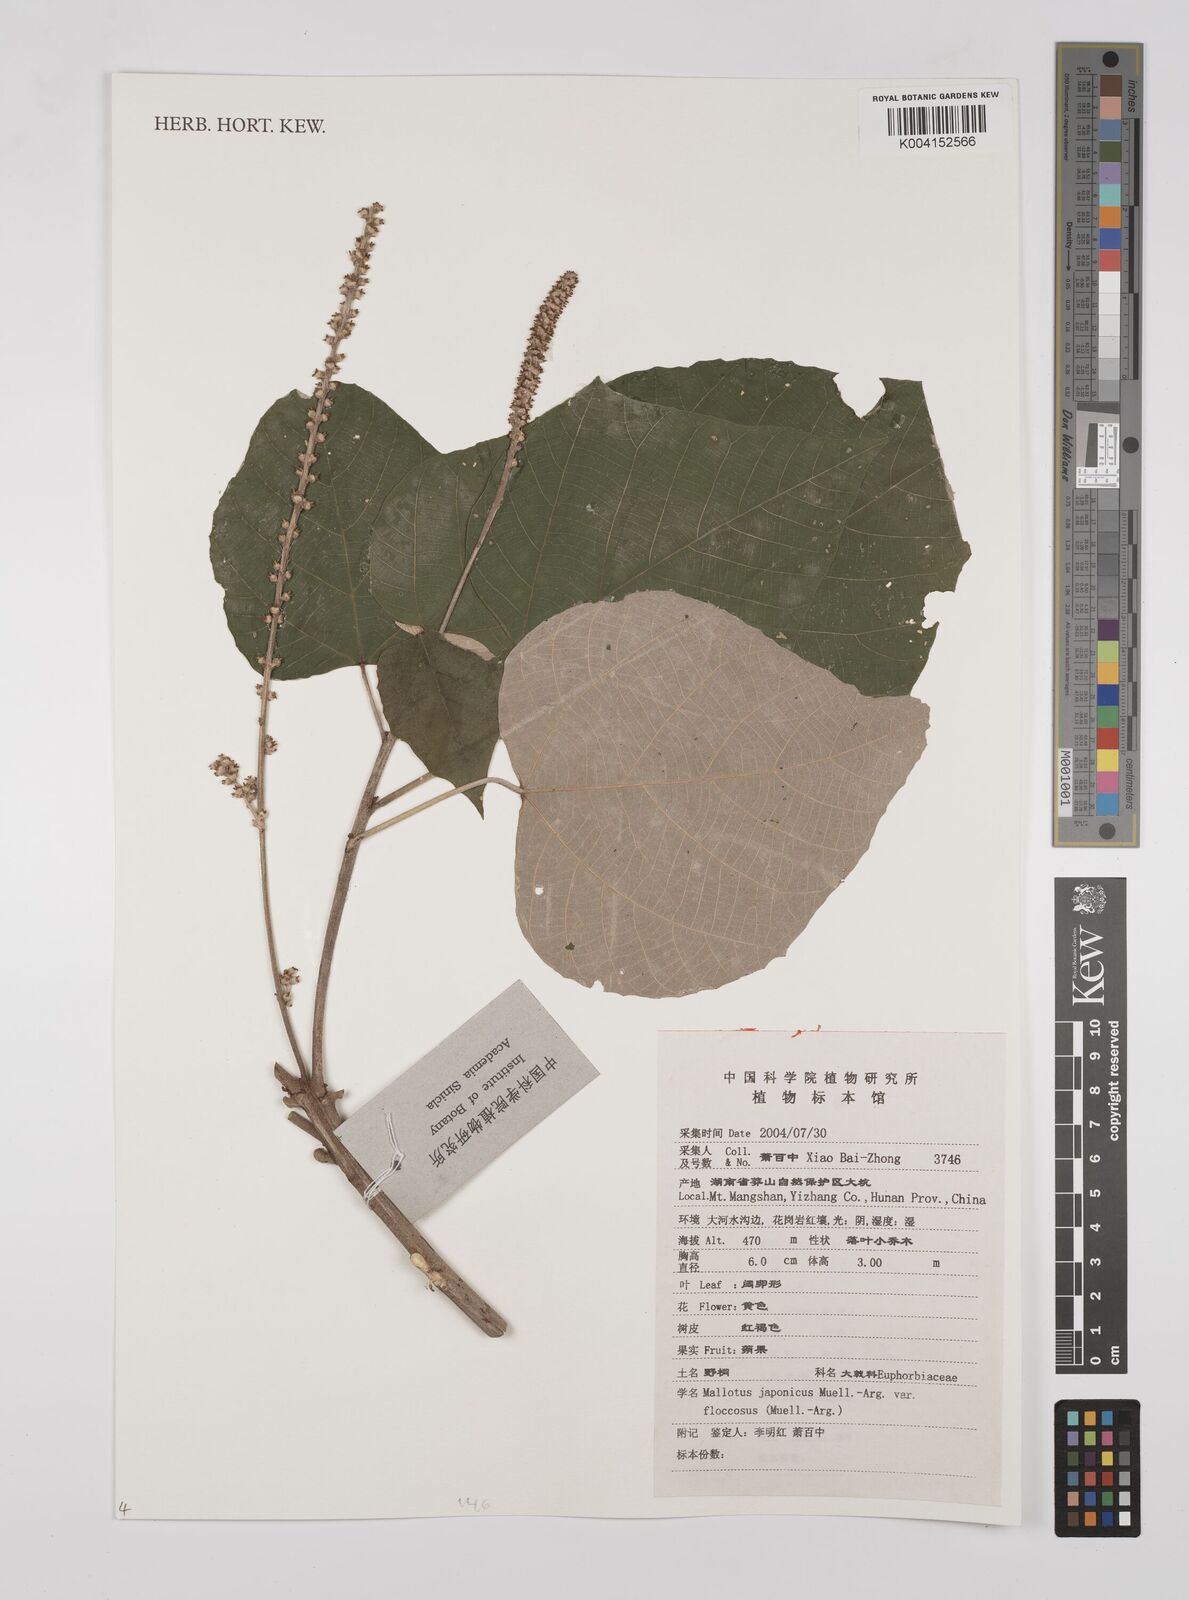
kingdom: Plantae
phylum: Tracheophyta
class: Magnoliopsida
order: Malpighiales
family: Euphorbiaceae
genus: Mallotus
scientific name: Mallotus japonicus
